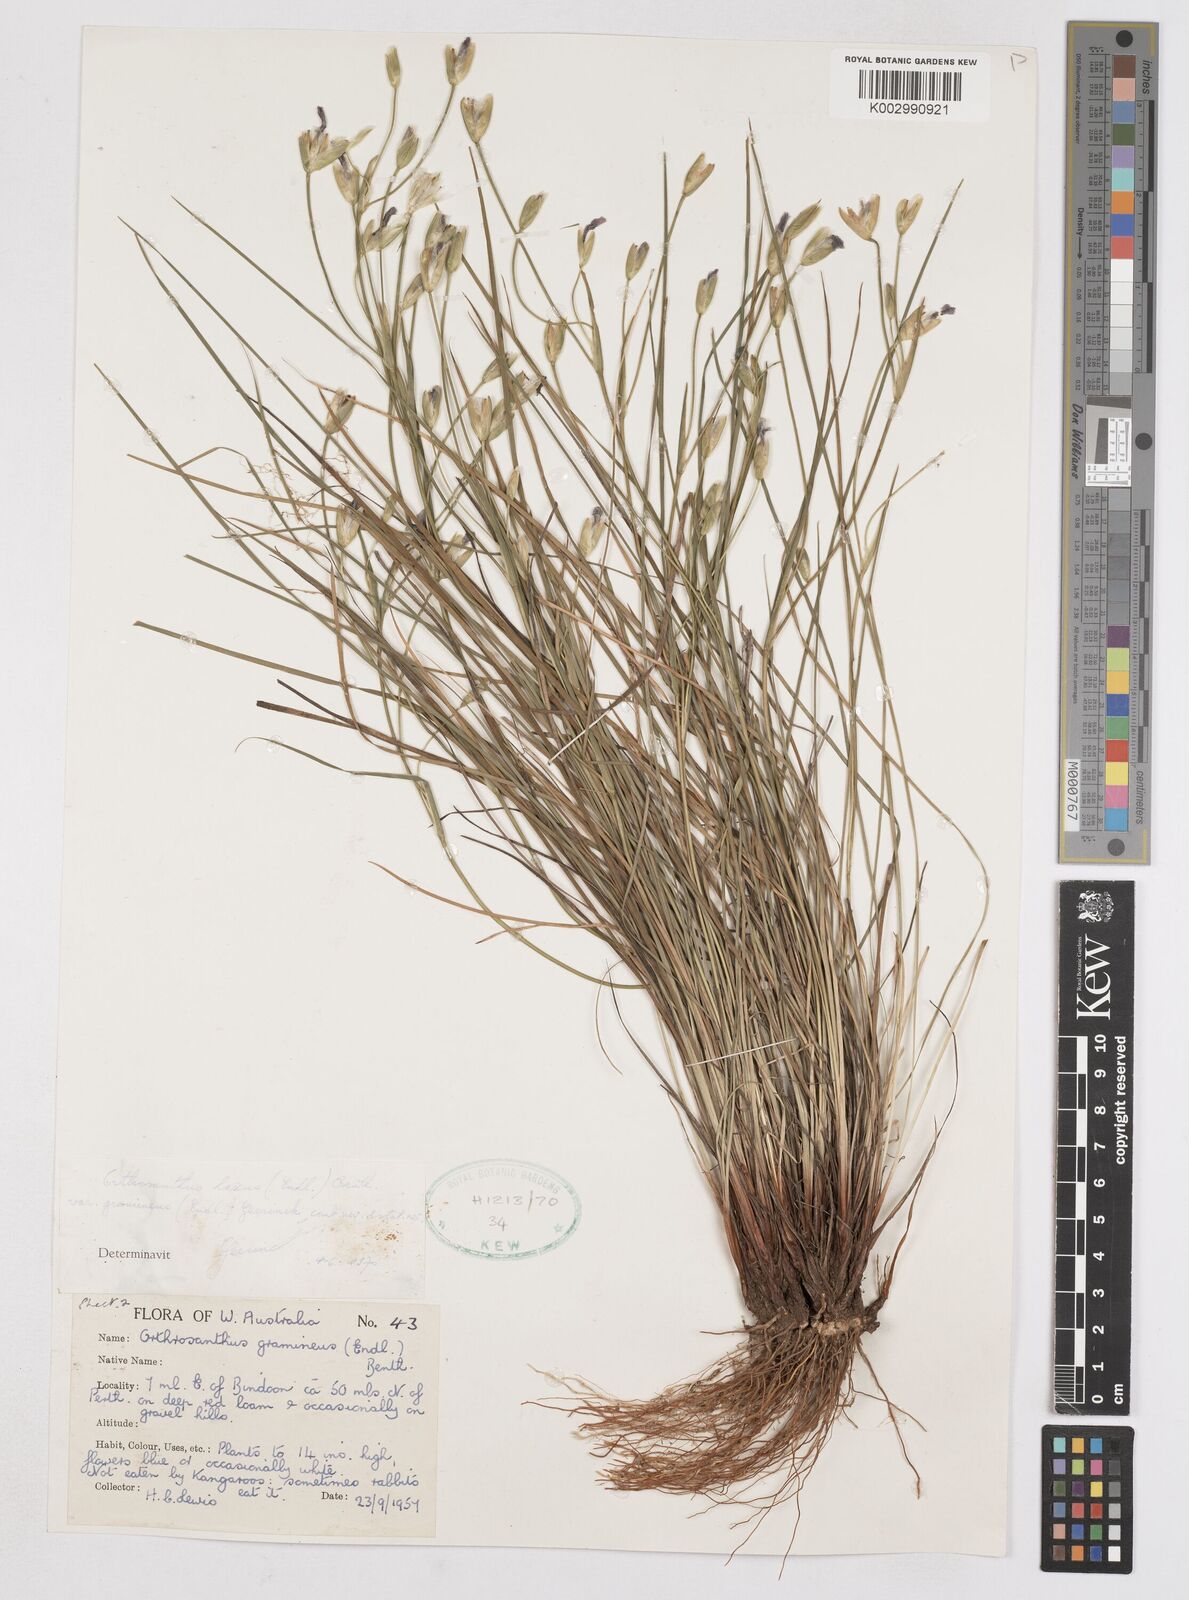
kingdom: Plantae
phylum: Tracheophyta
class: Liliopsida
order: Asparagales
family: Iridaceae
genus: Orthrosanthus
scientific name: Orthrosanthus laxus
